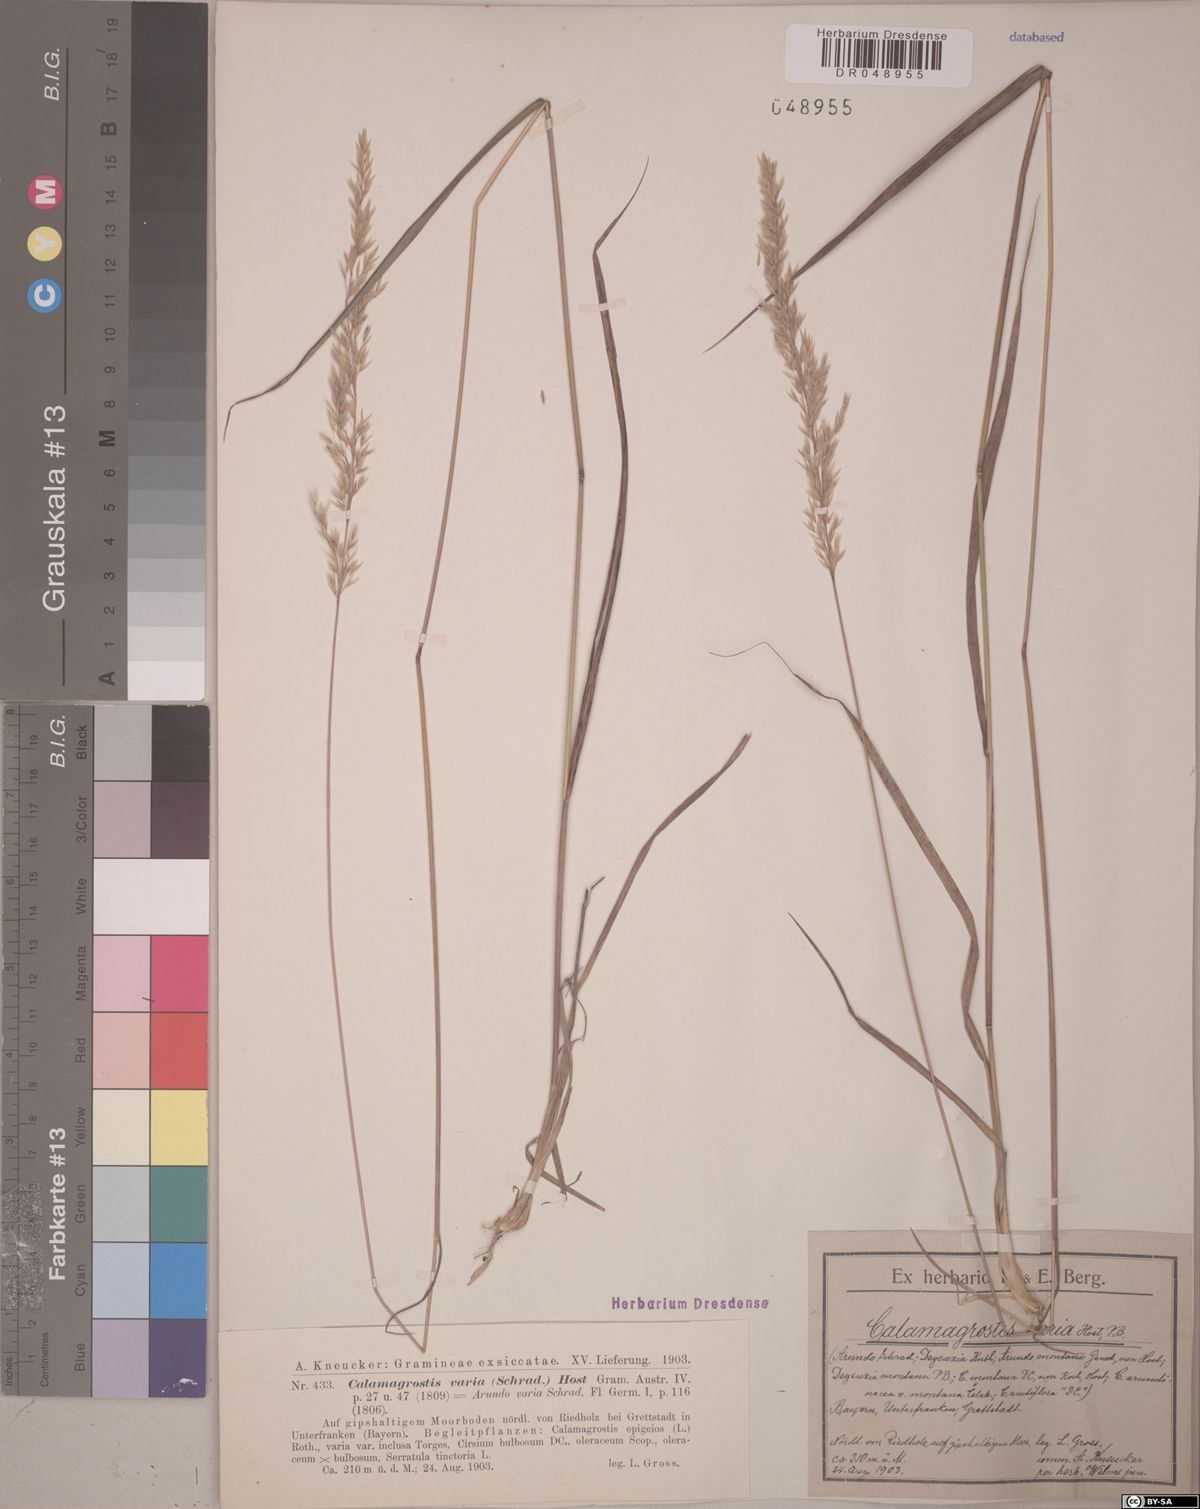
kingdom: Plantae
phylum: Tracheophyta
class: Liliopsida
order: Poales
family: Poaceae
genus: Calamagrostis
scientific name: Calamagrostis varia
